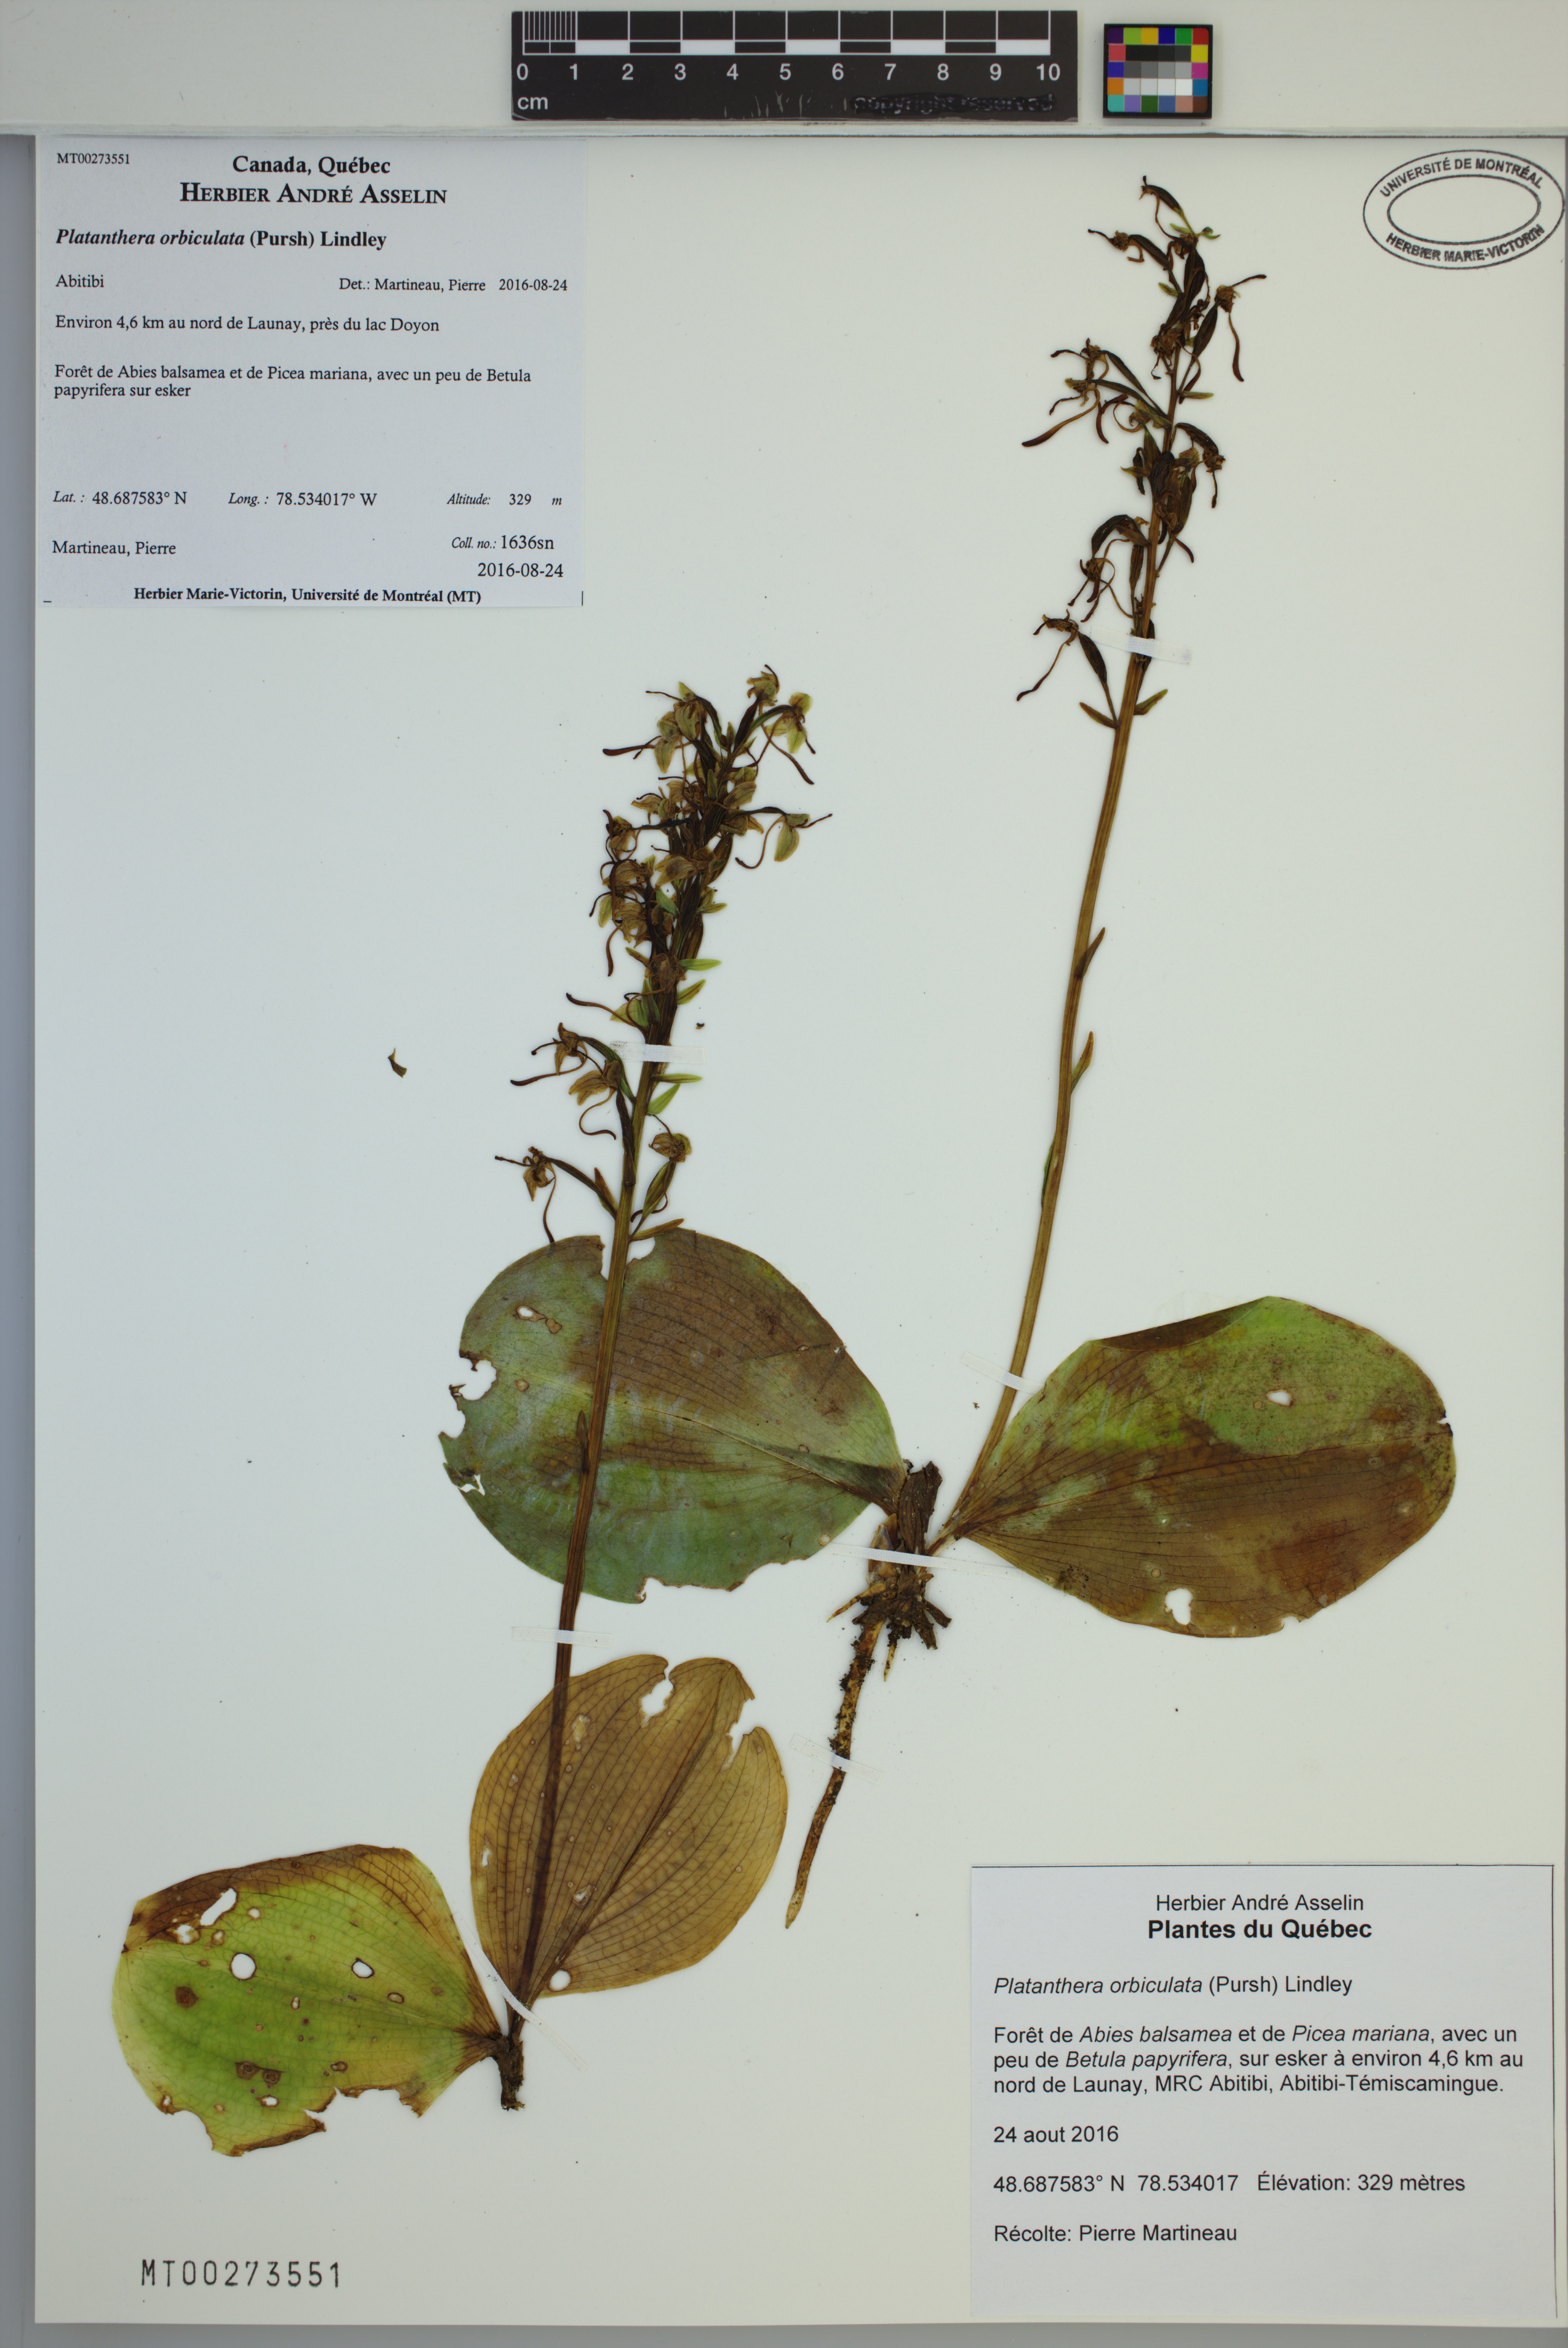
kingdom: Plantae
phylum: Tracheophyta
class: Liliopsida
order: Asparagales
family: Orchidaceae
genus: Platanthera
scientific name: Platanthera orbiculata
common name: Large round-leaved orchid
